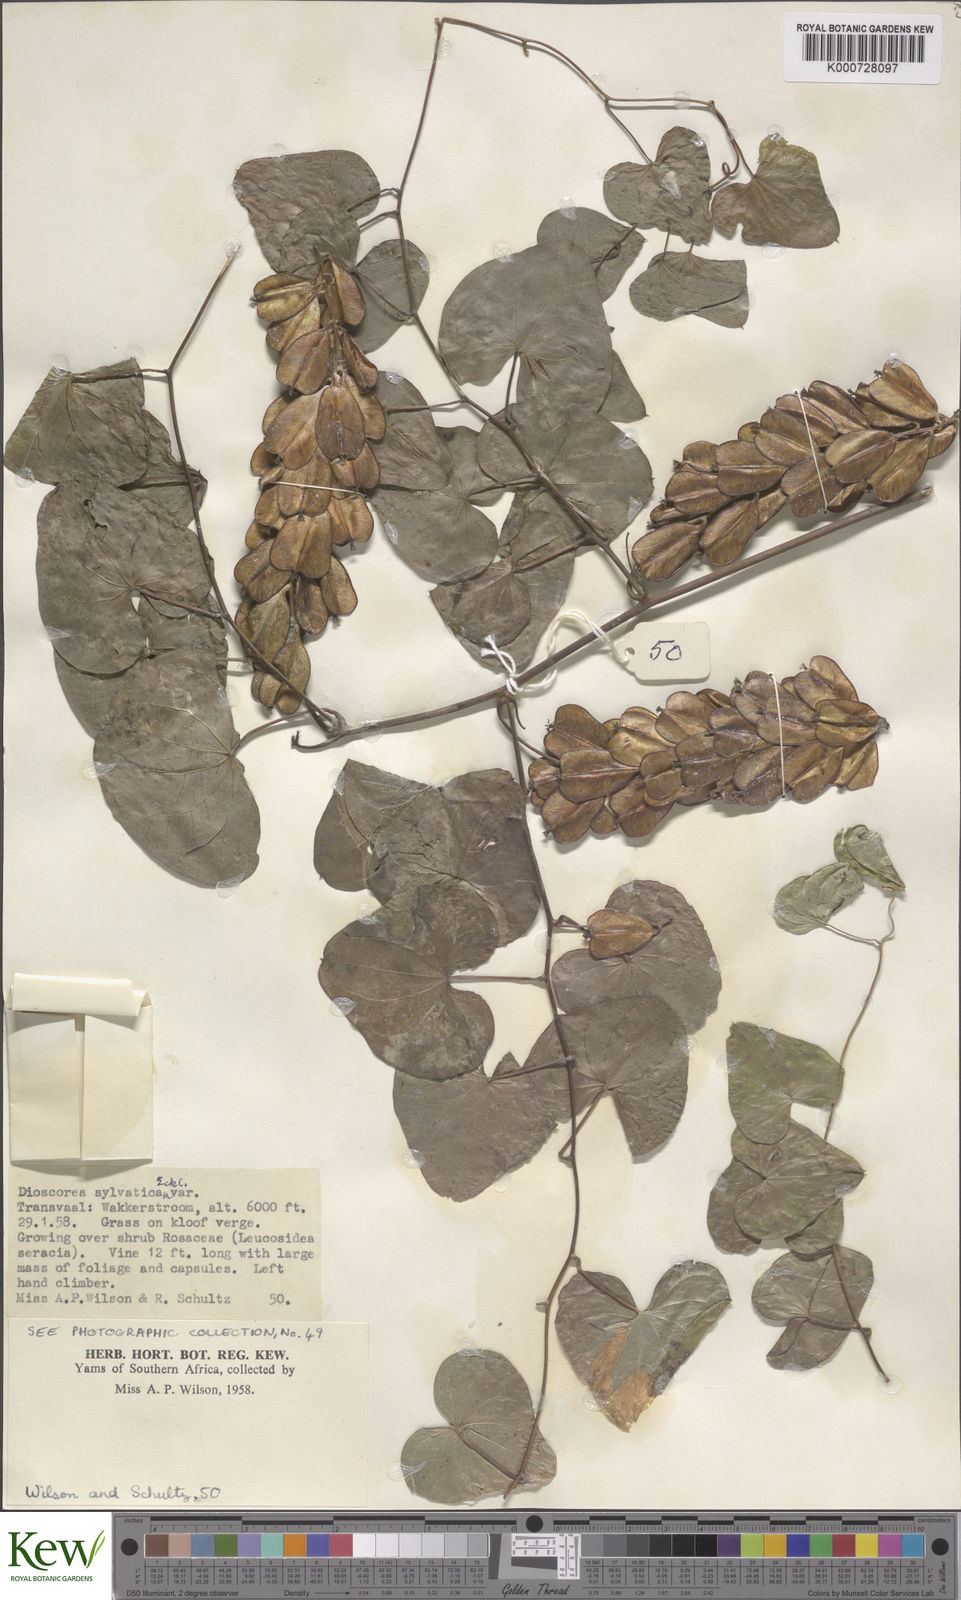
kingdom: Plantae
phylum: Tracheophyta
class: Liliopsida
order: Dioscoreales
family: Dioscoreaceae
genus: Dioscorea
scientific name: Dioscorea sylvatica
